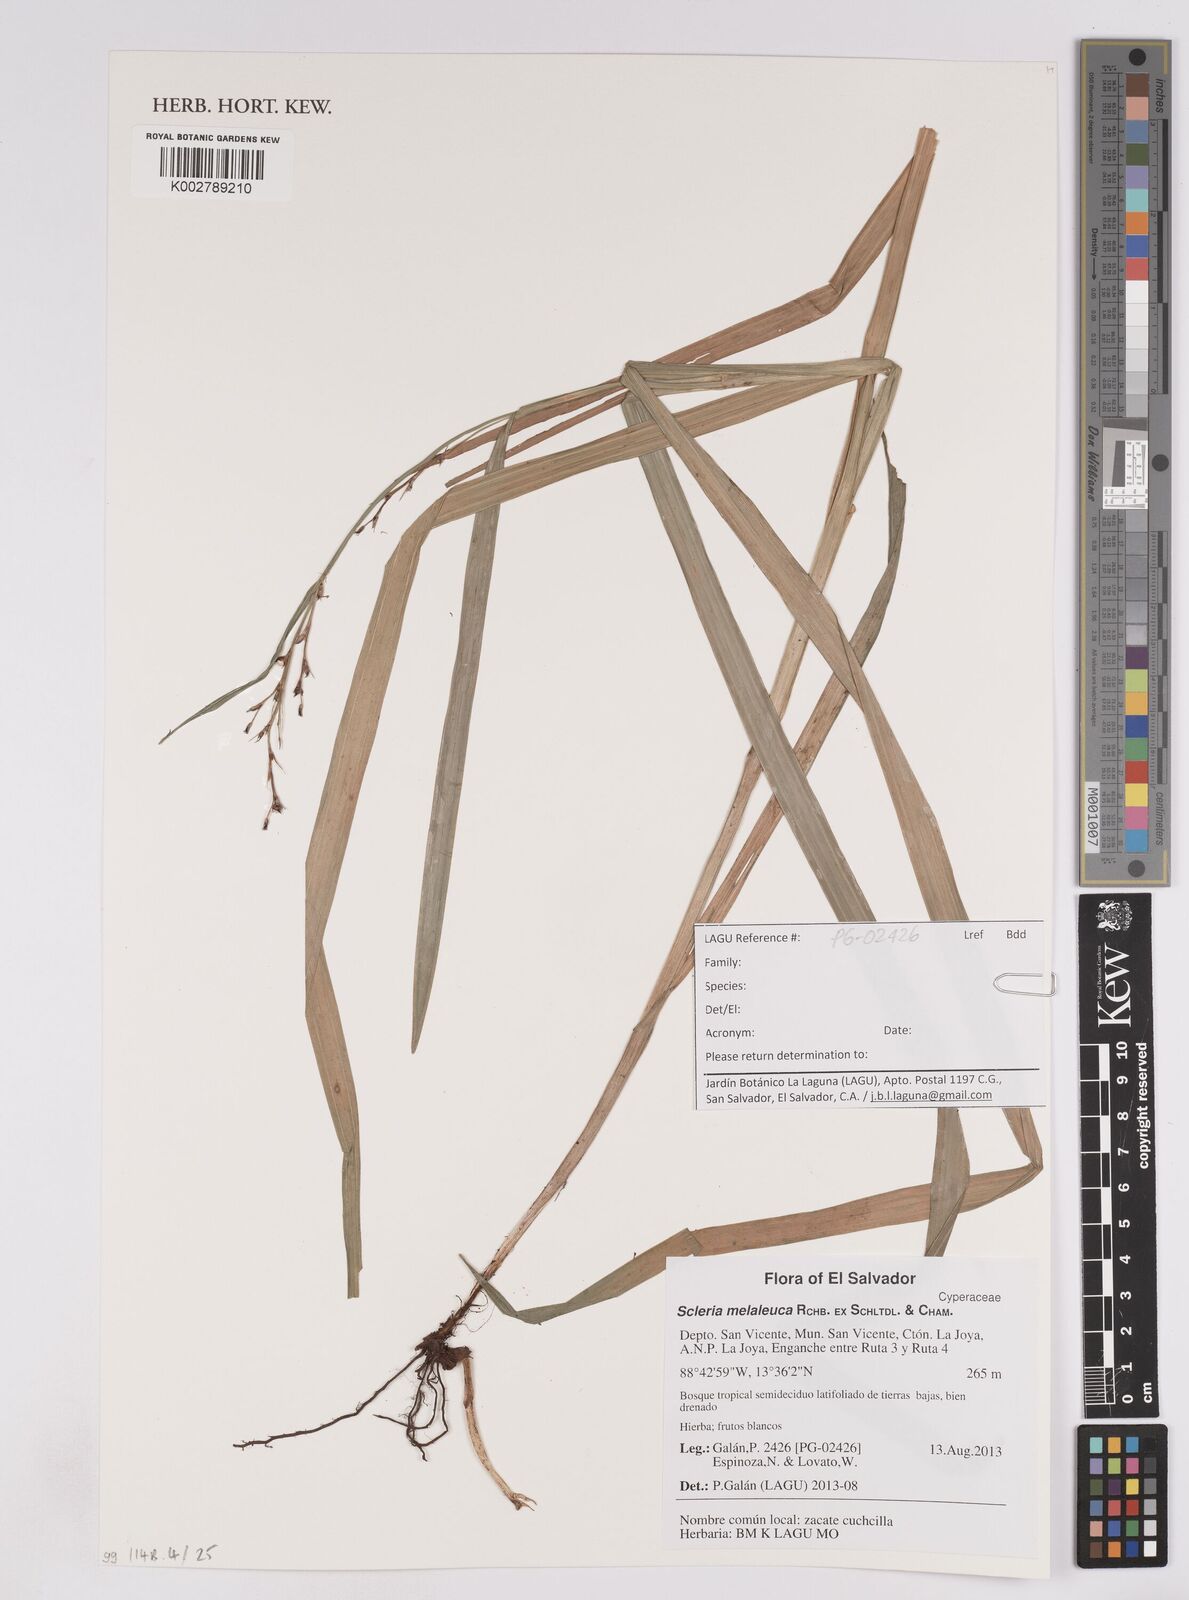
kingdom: Plantae
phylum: Tracheophyta
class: Liliopsida
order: Poales
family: Cyperaceae
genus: Scleria
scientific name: Scleria gaertneri
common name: Cortadera blanca
